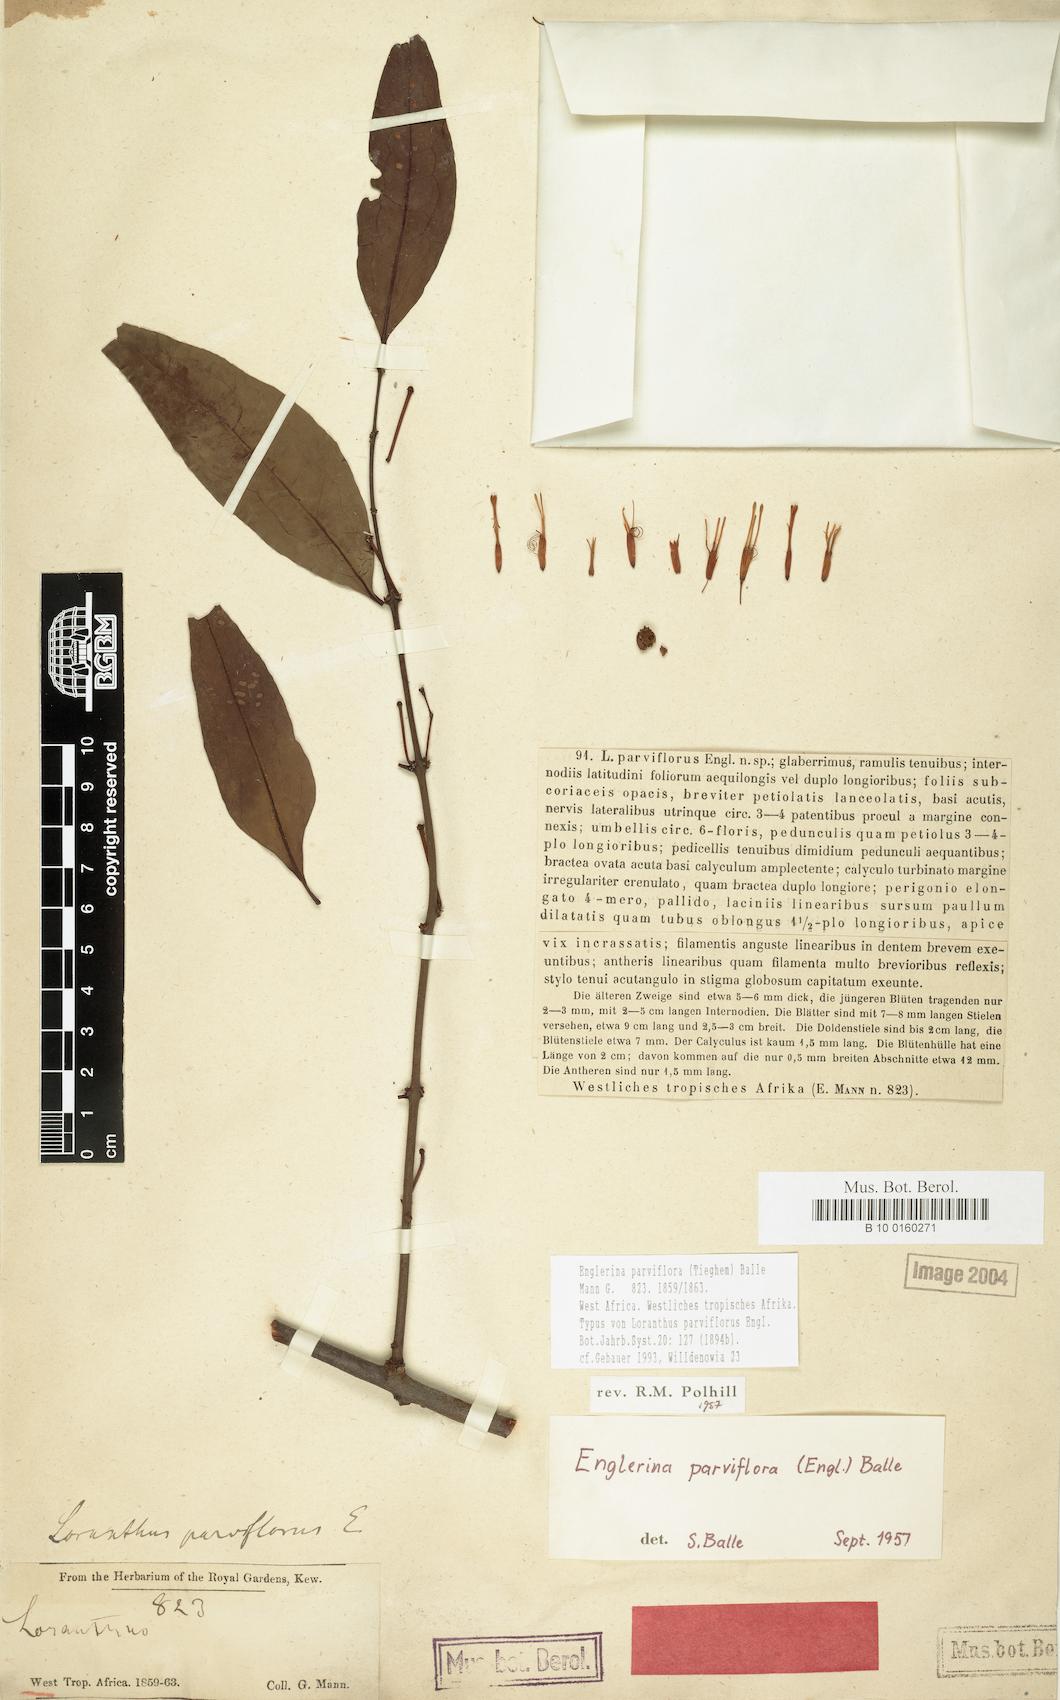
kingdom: Plantae
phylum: Tracheophyta
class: Magnoliopsida
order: Santalales
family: Loranthaceae
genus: Englerina
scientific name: Englerina parviflora
